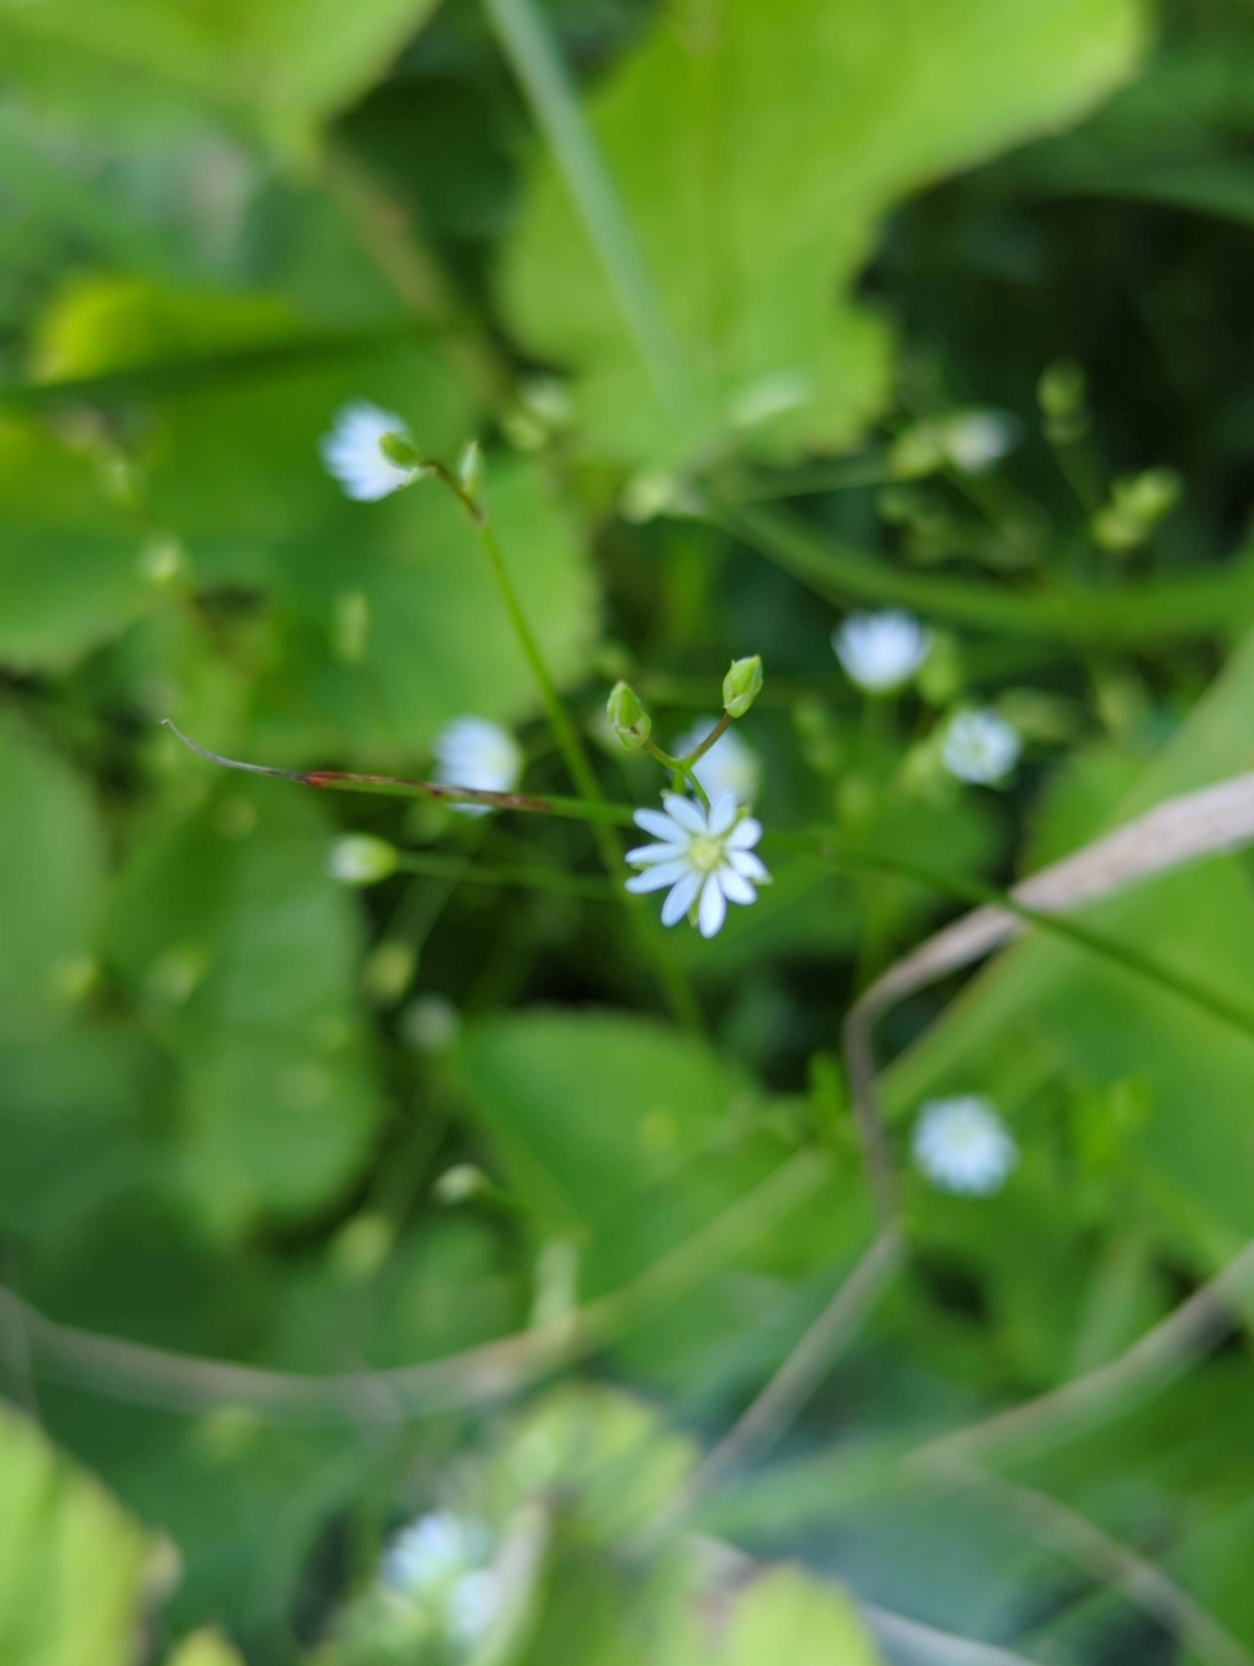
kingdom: Plantae
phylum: Tracheophyta
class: Magnoliopsida
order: Caryophyllales
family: Caryophyllaceae
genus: Stellaria
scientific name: Stellaria graminea
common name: Græsbladet fladstjerne
